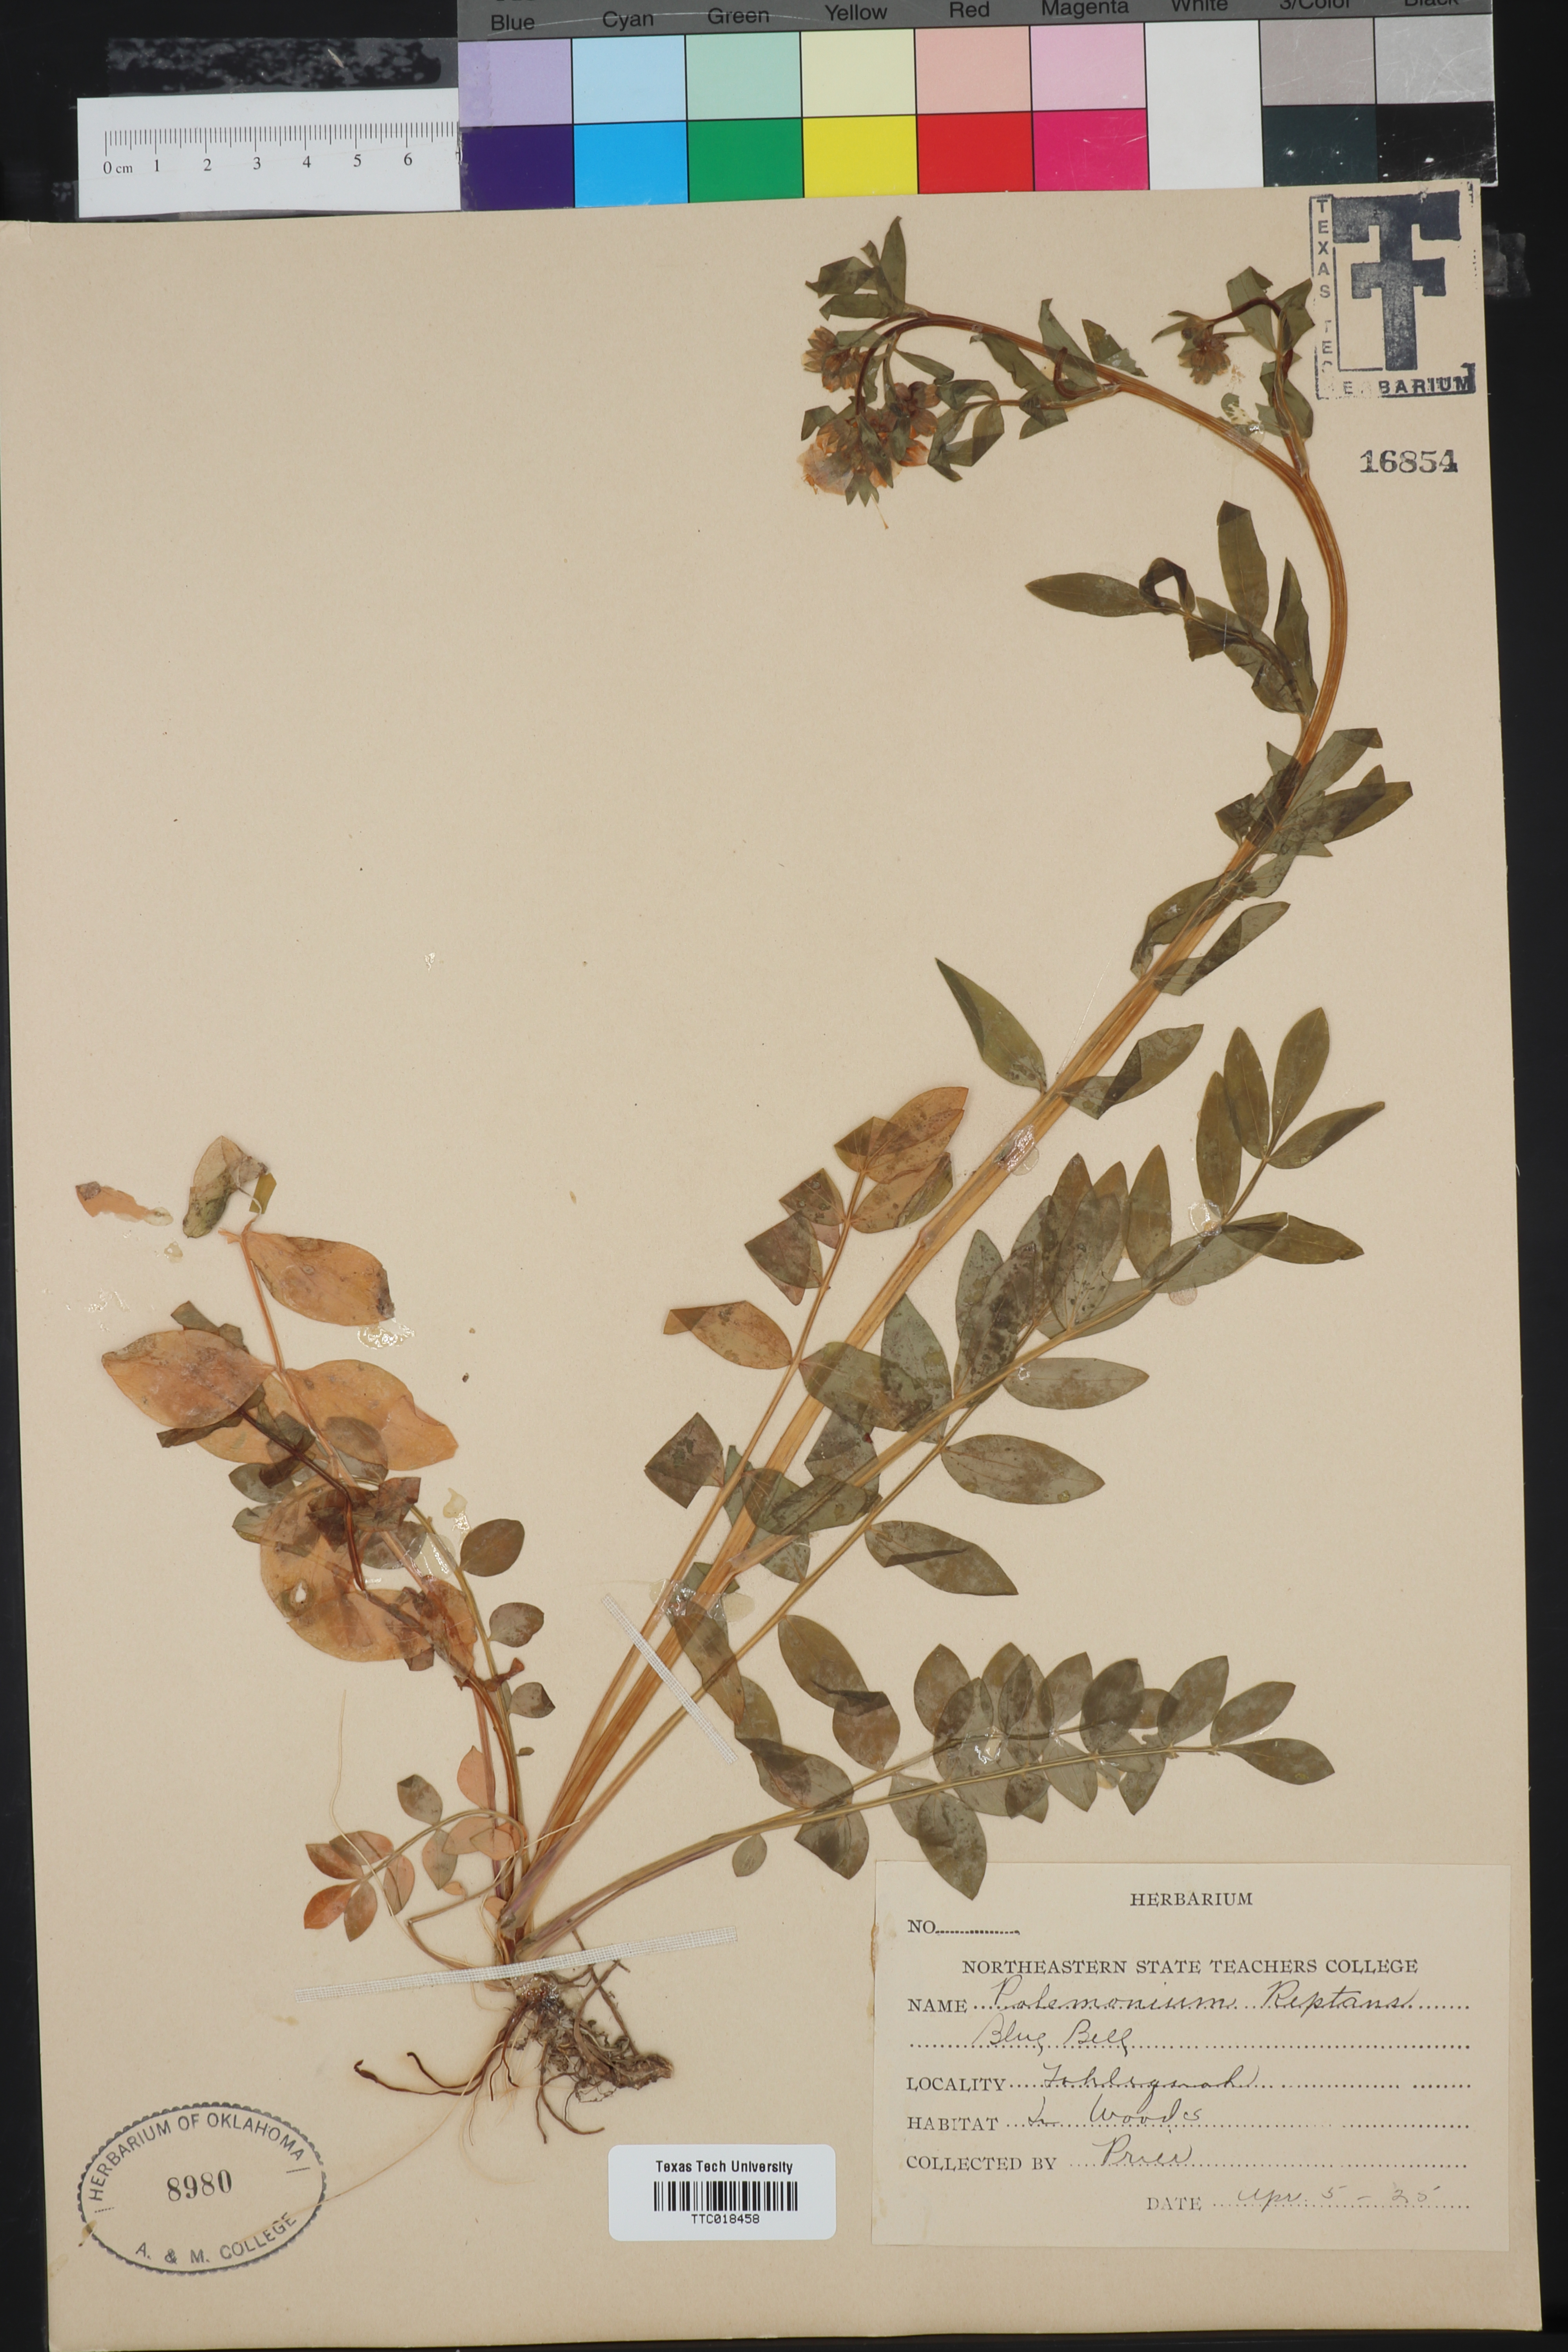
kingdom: Plantae
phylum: Tracheophyta
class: Magnoliopsida
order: Ericales
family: Polemoniaceae
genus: Polemonium
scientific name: Polemonium reptans
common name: Creeping jacob's-ladder
